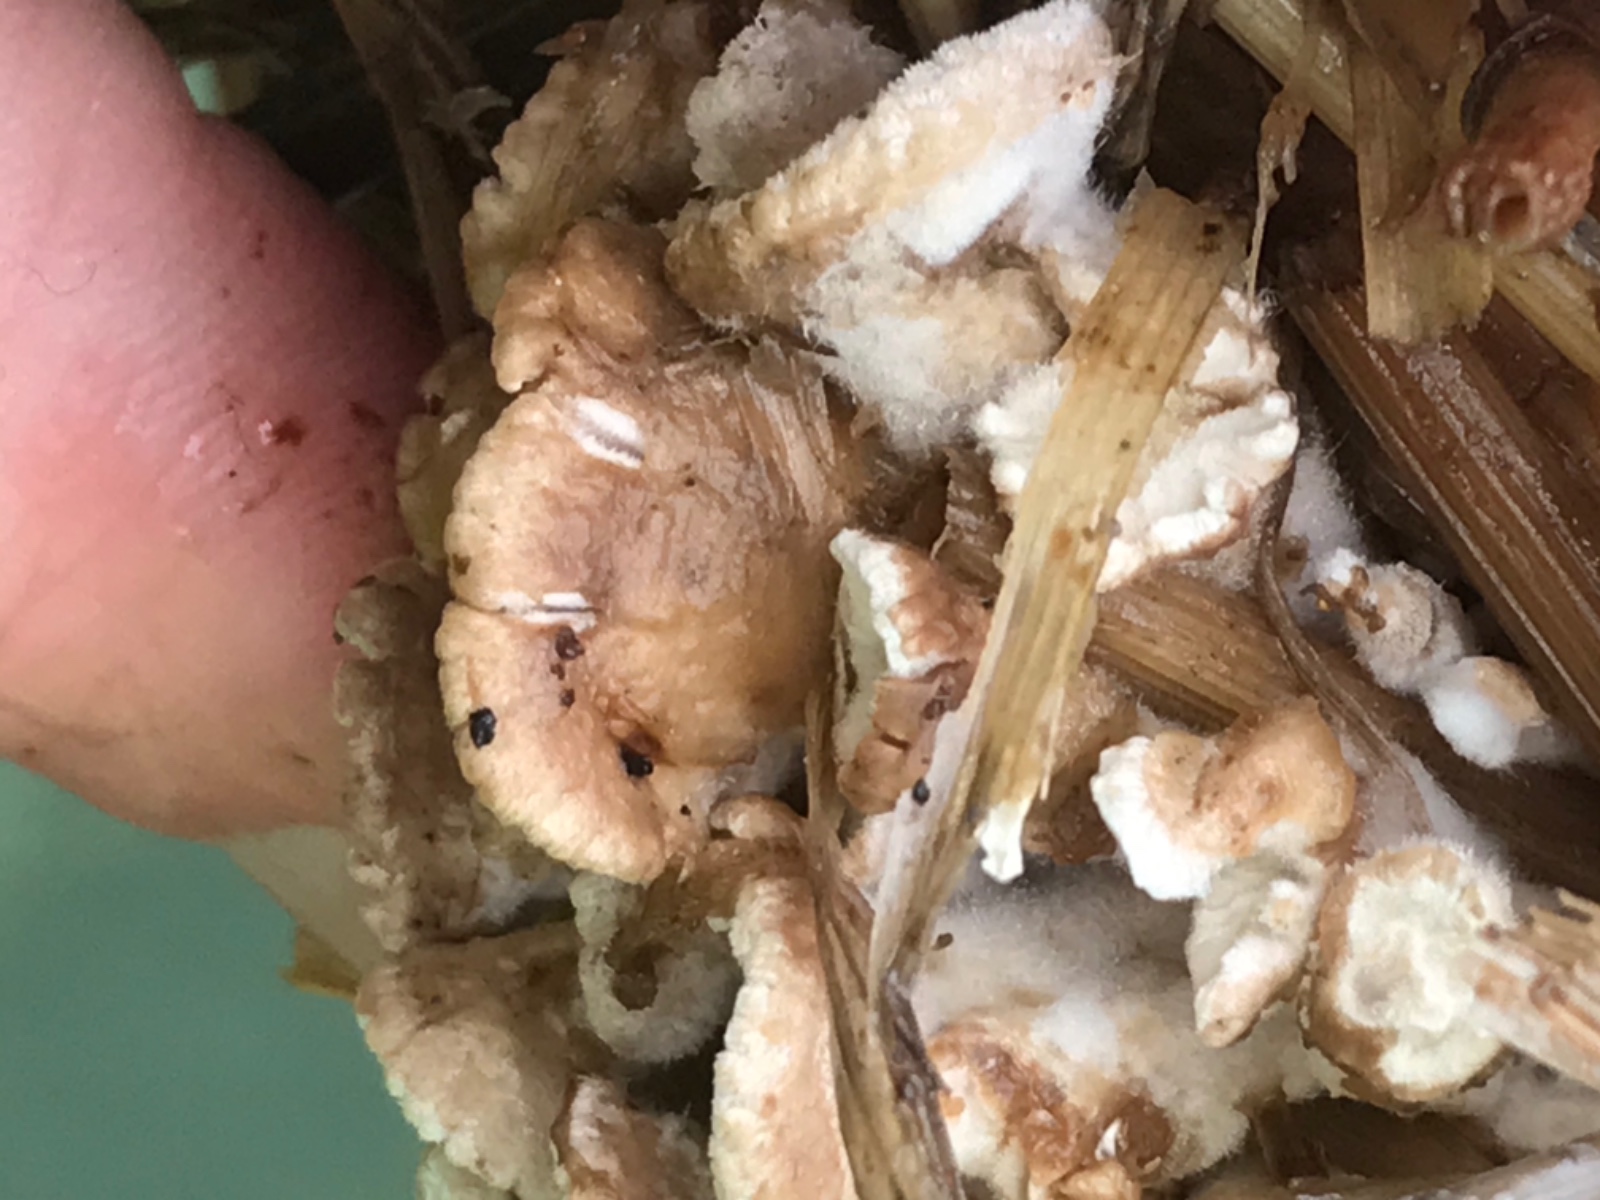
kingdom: Fungi
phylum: Basidiomycota
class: Agaricomycetes
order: Agaricales
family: Schizophyllaceae
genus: Schizophyllum
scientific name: Schizophyllum commune
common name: kløvblad
